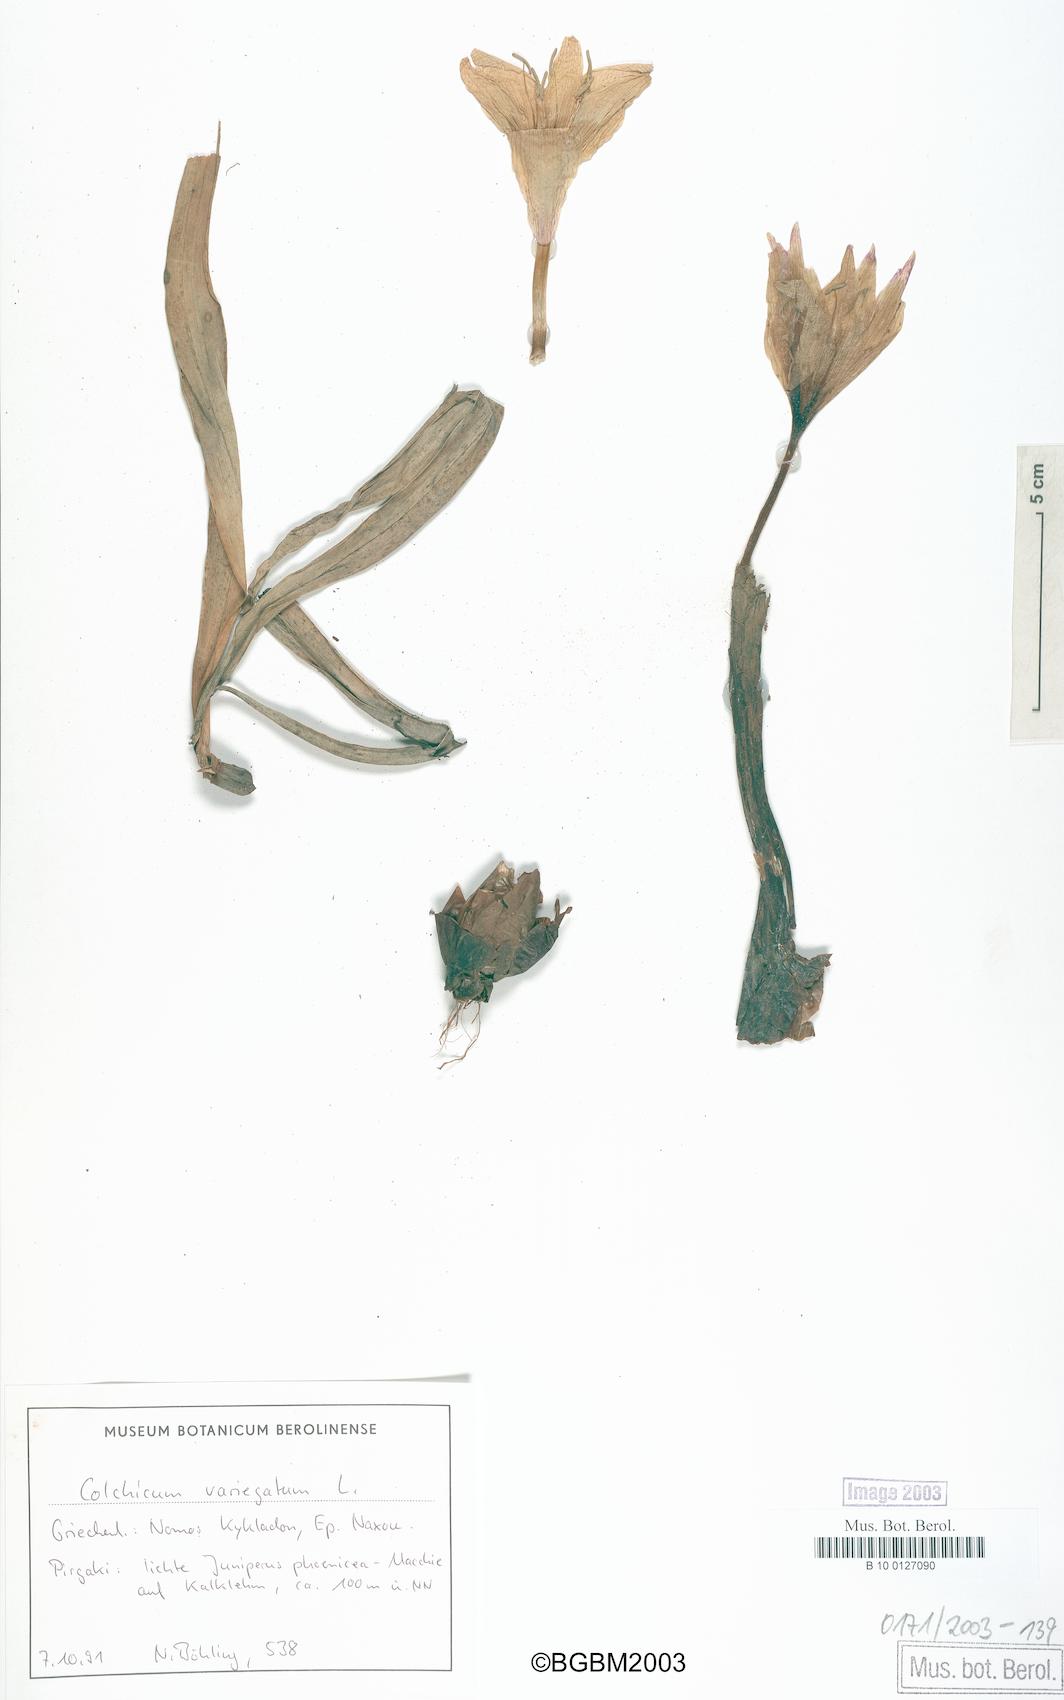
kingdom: Plantae
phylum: Tracheophyta
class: Liliopsida
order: Liliales
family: Colchicaceae
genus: Colchicum
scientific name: Colchicum variegatum
